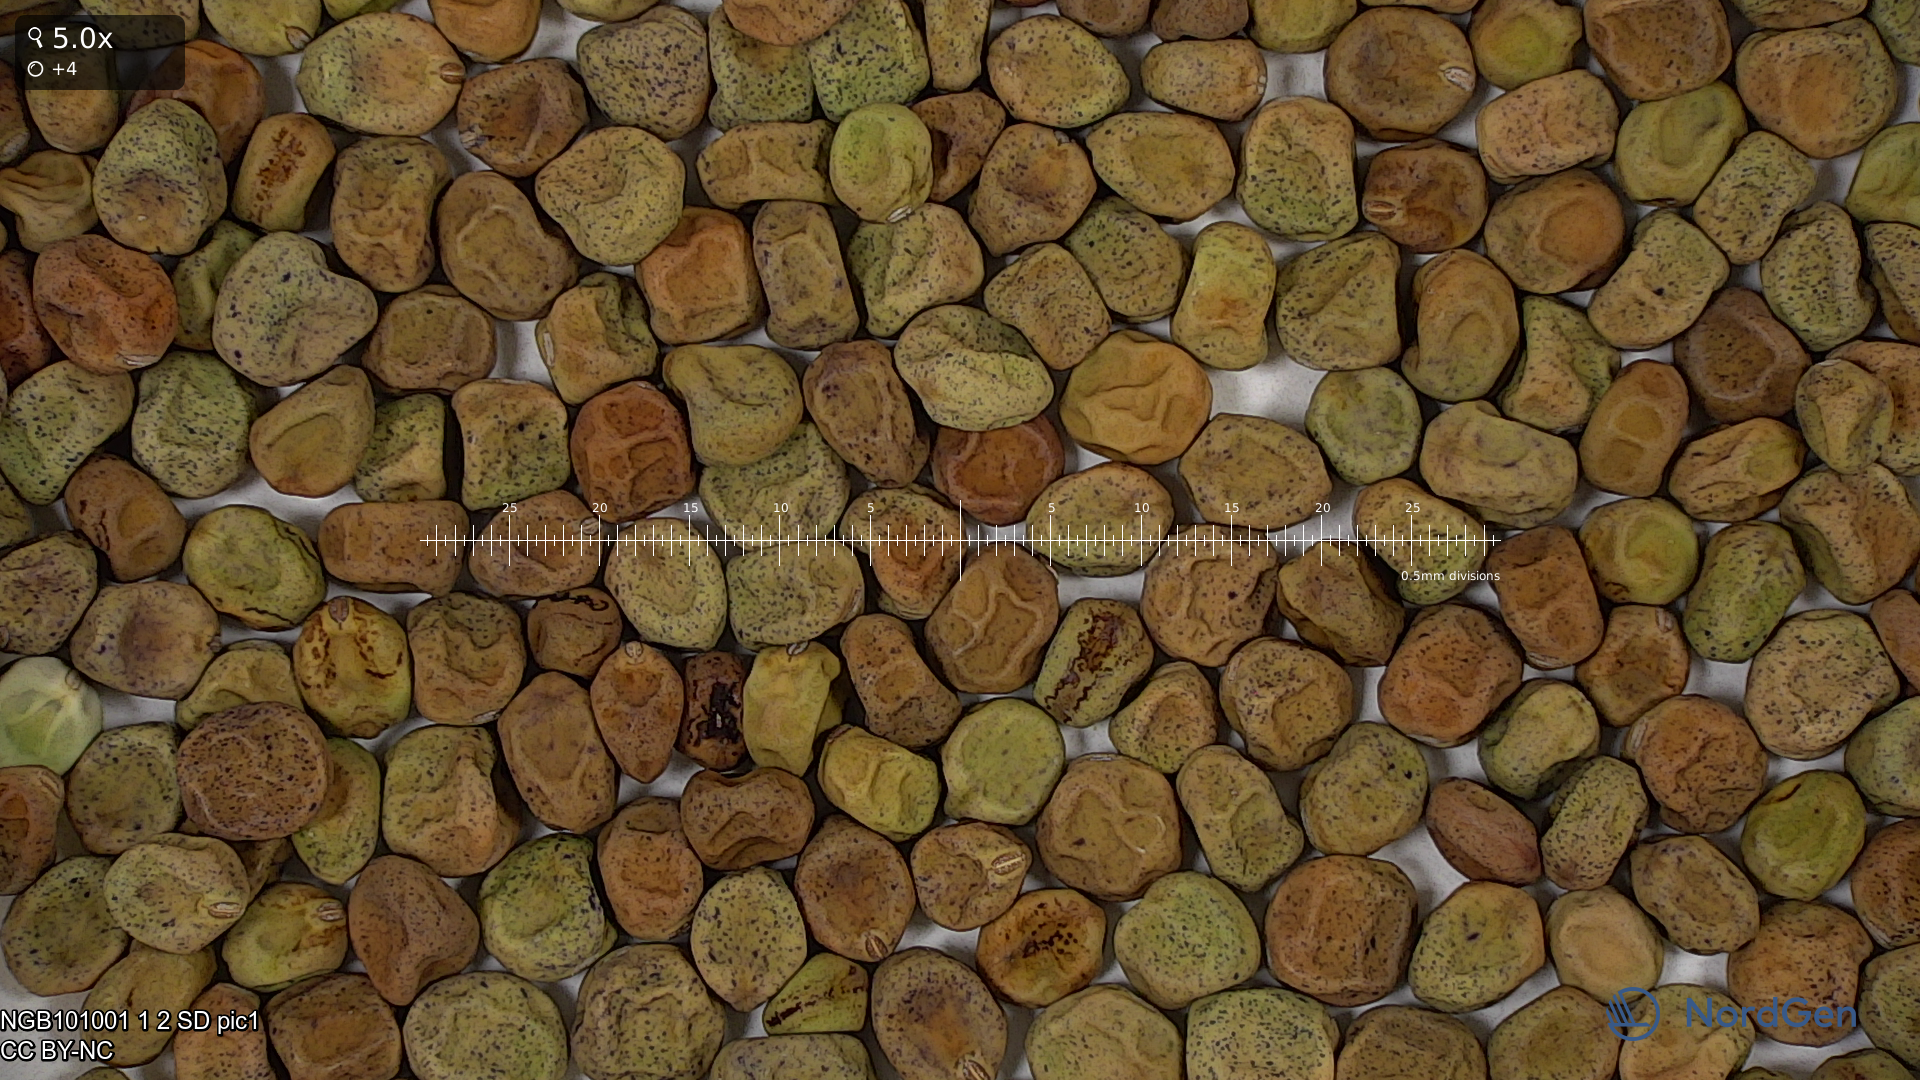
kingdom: Plantae
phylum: Tracheophyta
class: Magnoliopsida
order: Fabales
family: Fabaceae
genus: Lathyrus
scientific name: Lathyrus oleraceus
